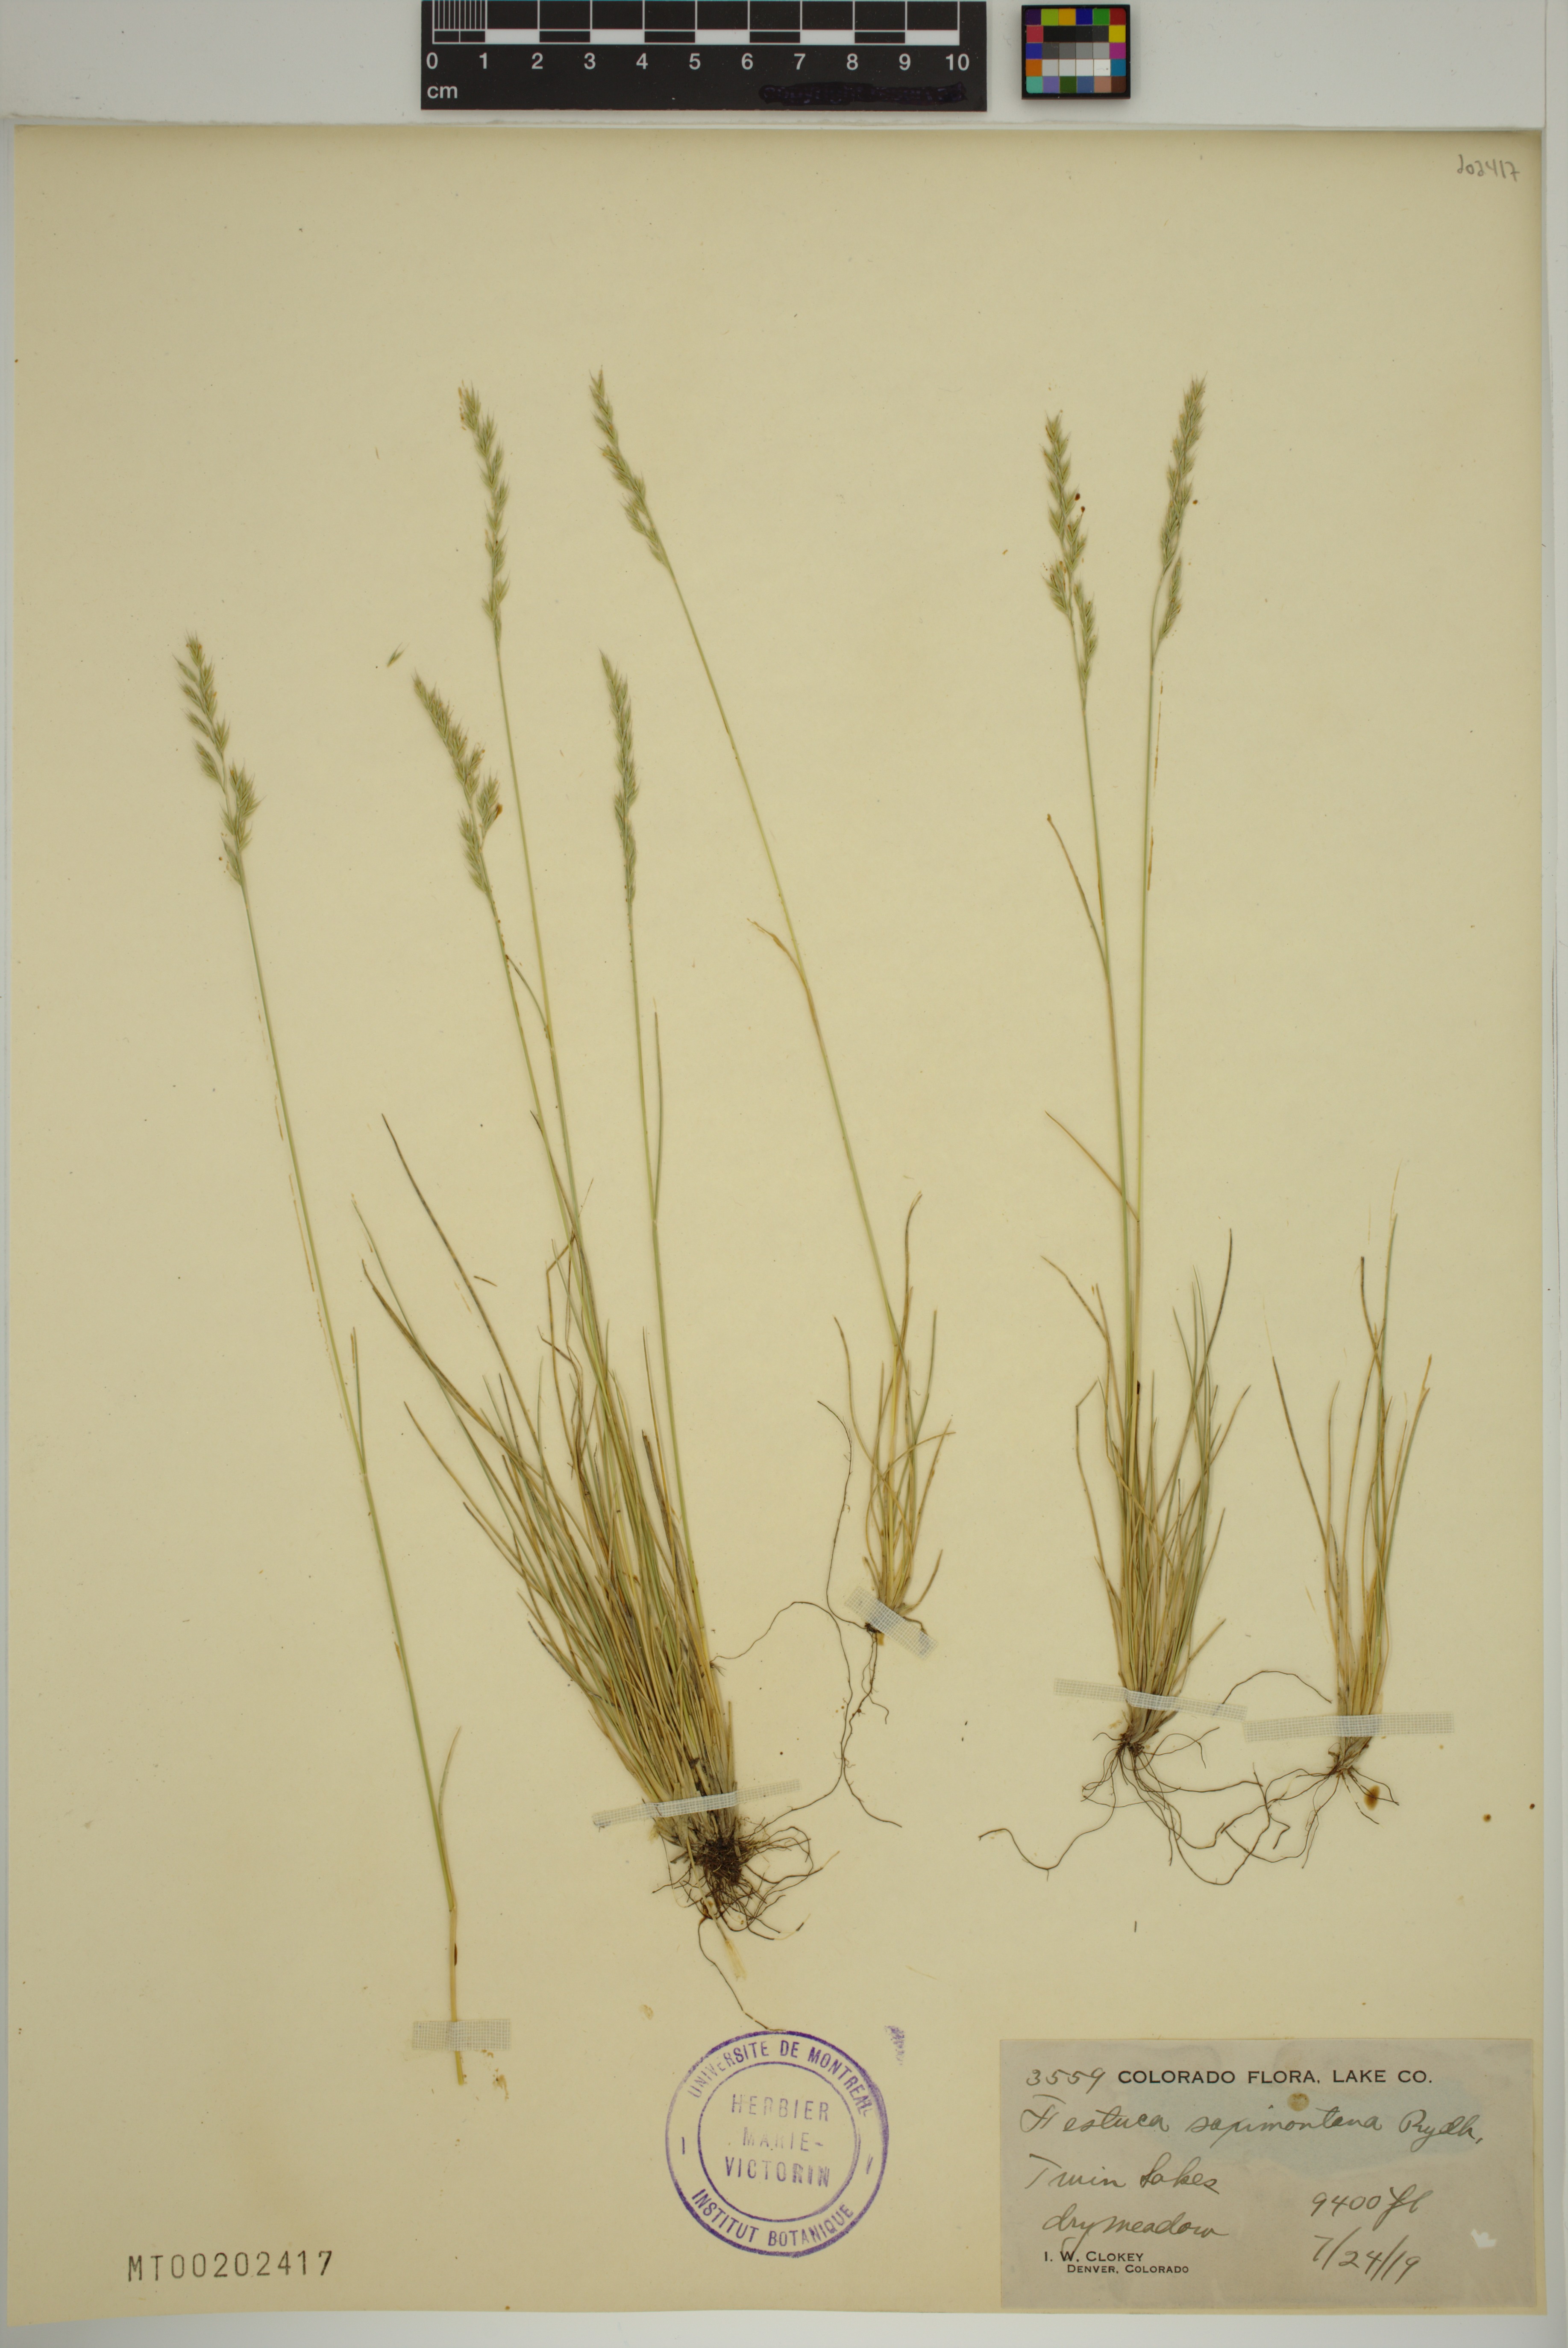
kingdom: Plantae
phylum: Tracheophyta
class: Liliopsida
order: Poales
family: Poaceae
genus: Festuca
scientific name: Festuca saximontana
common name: Mountain fescue
